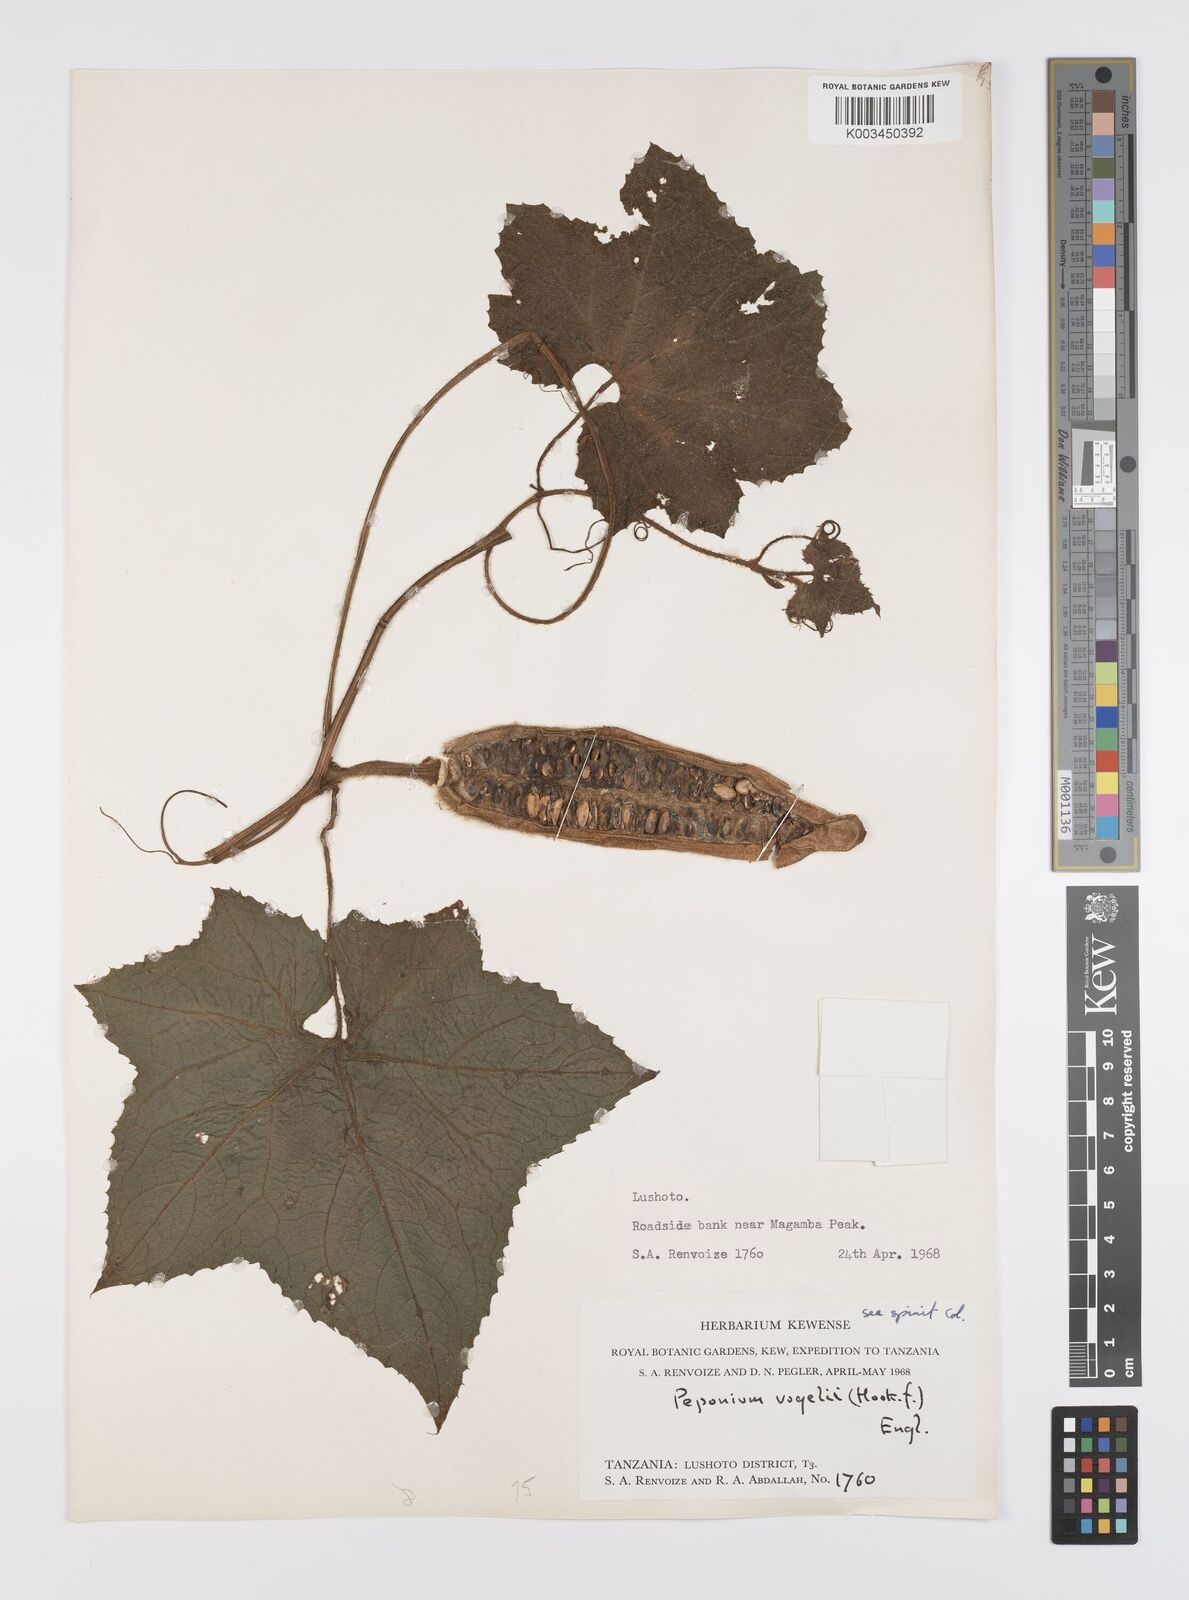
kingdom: Plantae
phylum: Tracheophyta
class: Magnoliopsida
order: Cucurbitales
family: Cucurbitaceae
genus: Peponium
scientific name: Peponium vogelii
